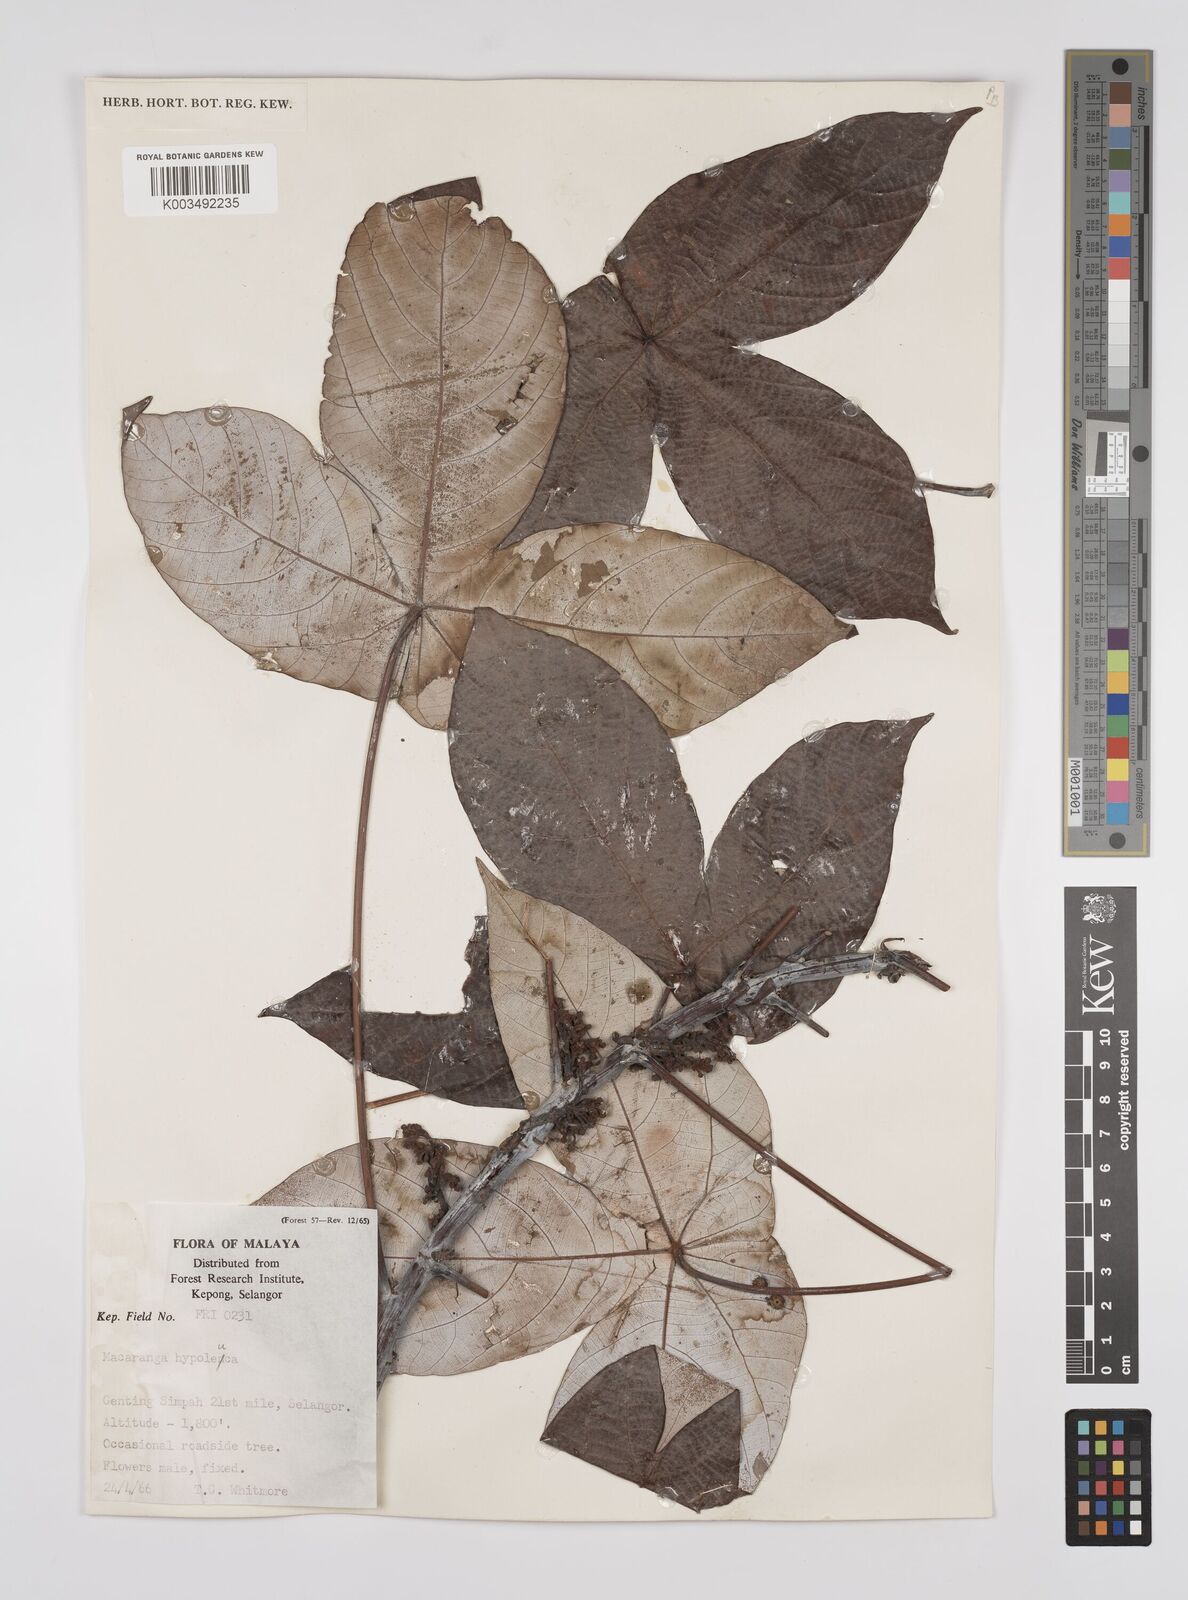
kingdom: Plantae
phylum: Tracheophyta
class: Magnoliopsida
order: Malpighiales
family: Euphorbiaceae
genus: Macaranga
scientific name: Macaranga hypoleuca
